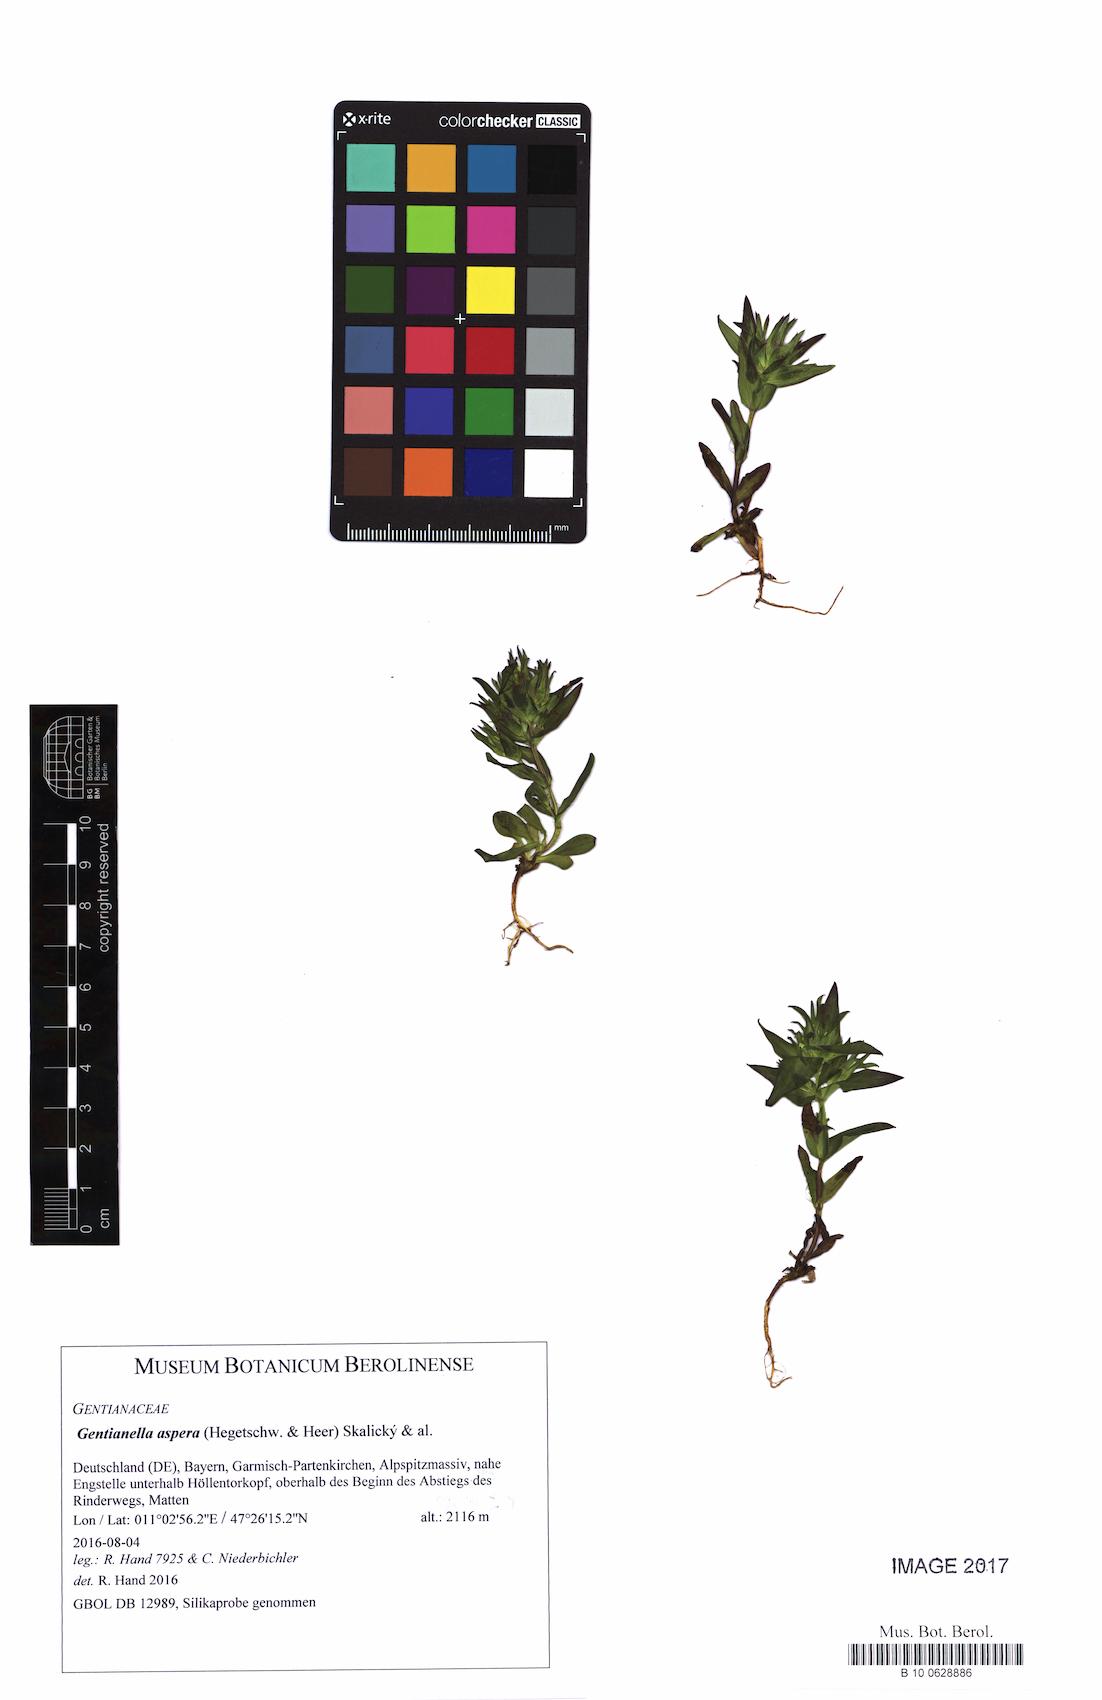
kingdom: Plantae
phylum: Tracheophyta
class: Magnoliopsida
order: Gentianales
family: Gentianaceae
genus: Gentianella
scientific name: Gentianella obtusifolia
